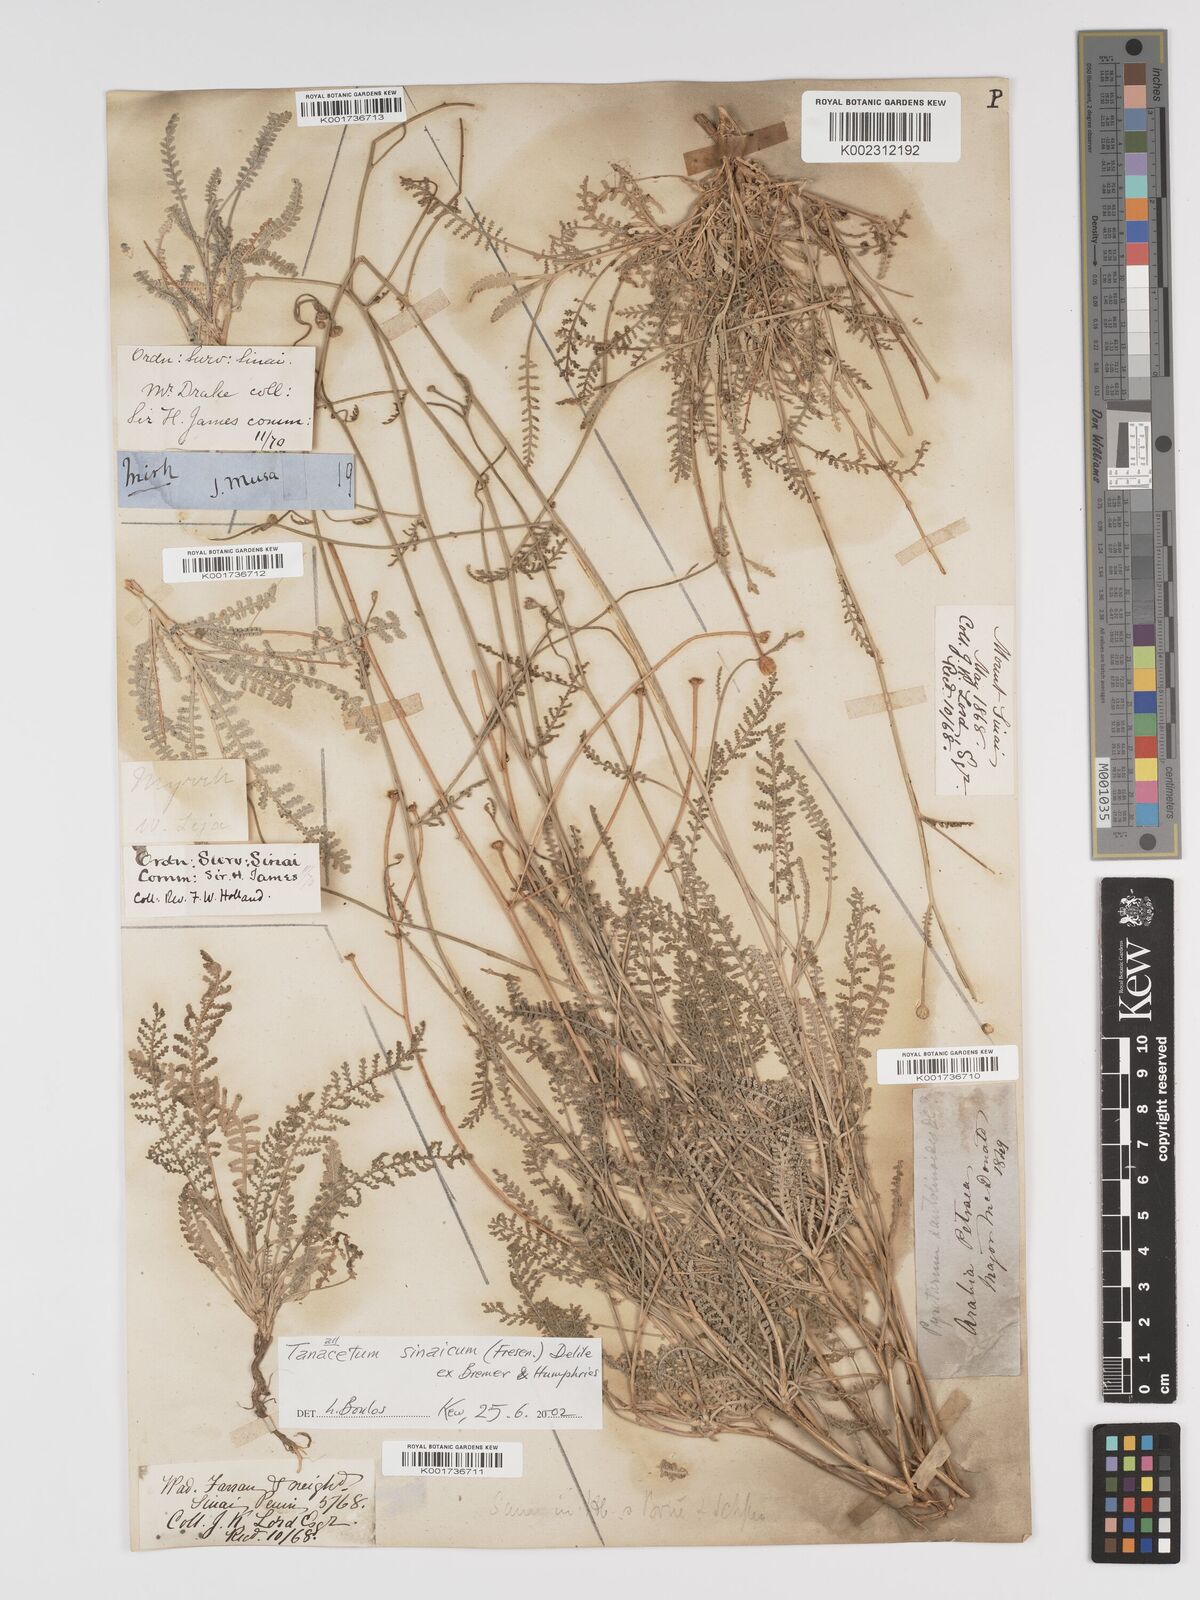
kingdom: Plantae
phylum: Tracheophyta
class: Magnoliopsida
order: Asterales
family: Asteraceae
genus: Tanacetum
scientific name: Tanacetum sinaicum
